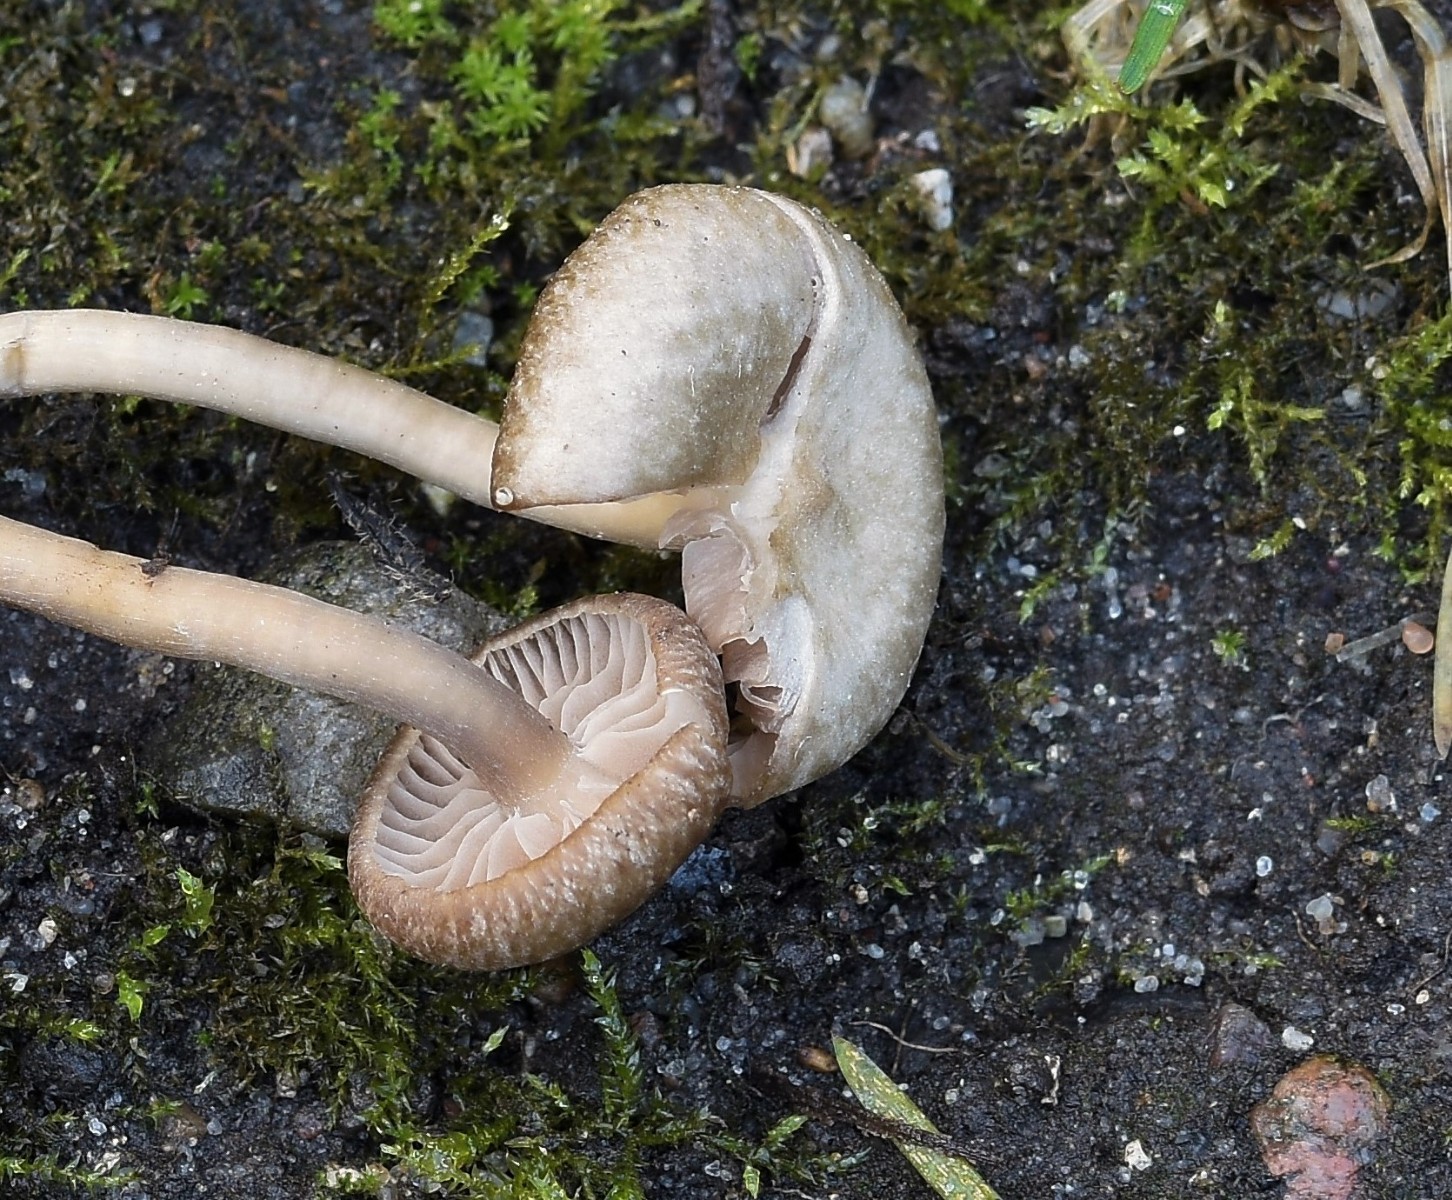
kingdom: Fungi
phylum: Basidiomycota
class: Agaricomycetes
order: Agaricales
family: Entolomataceae
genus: Entoloma
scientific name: Entoloma
